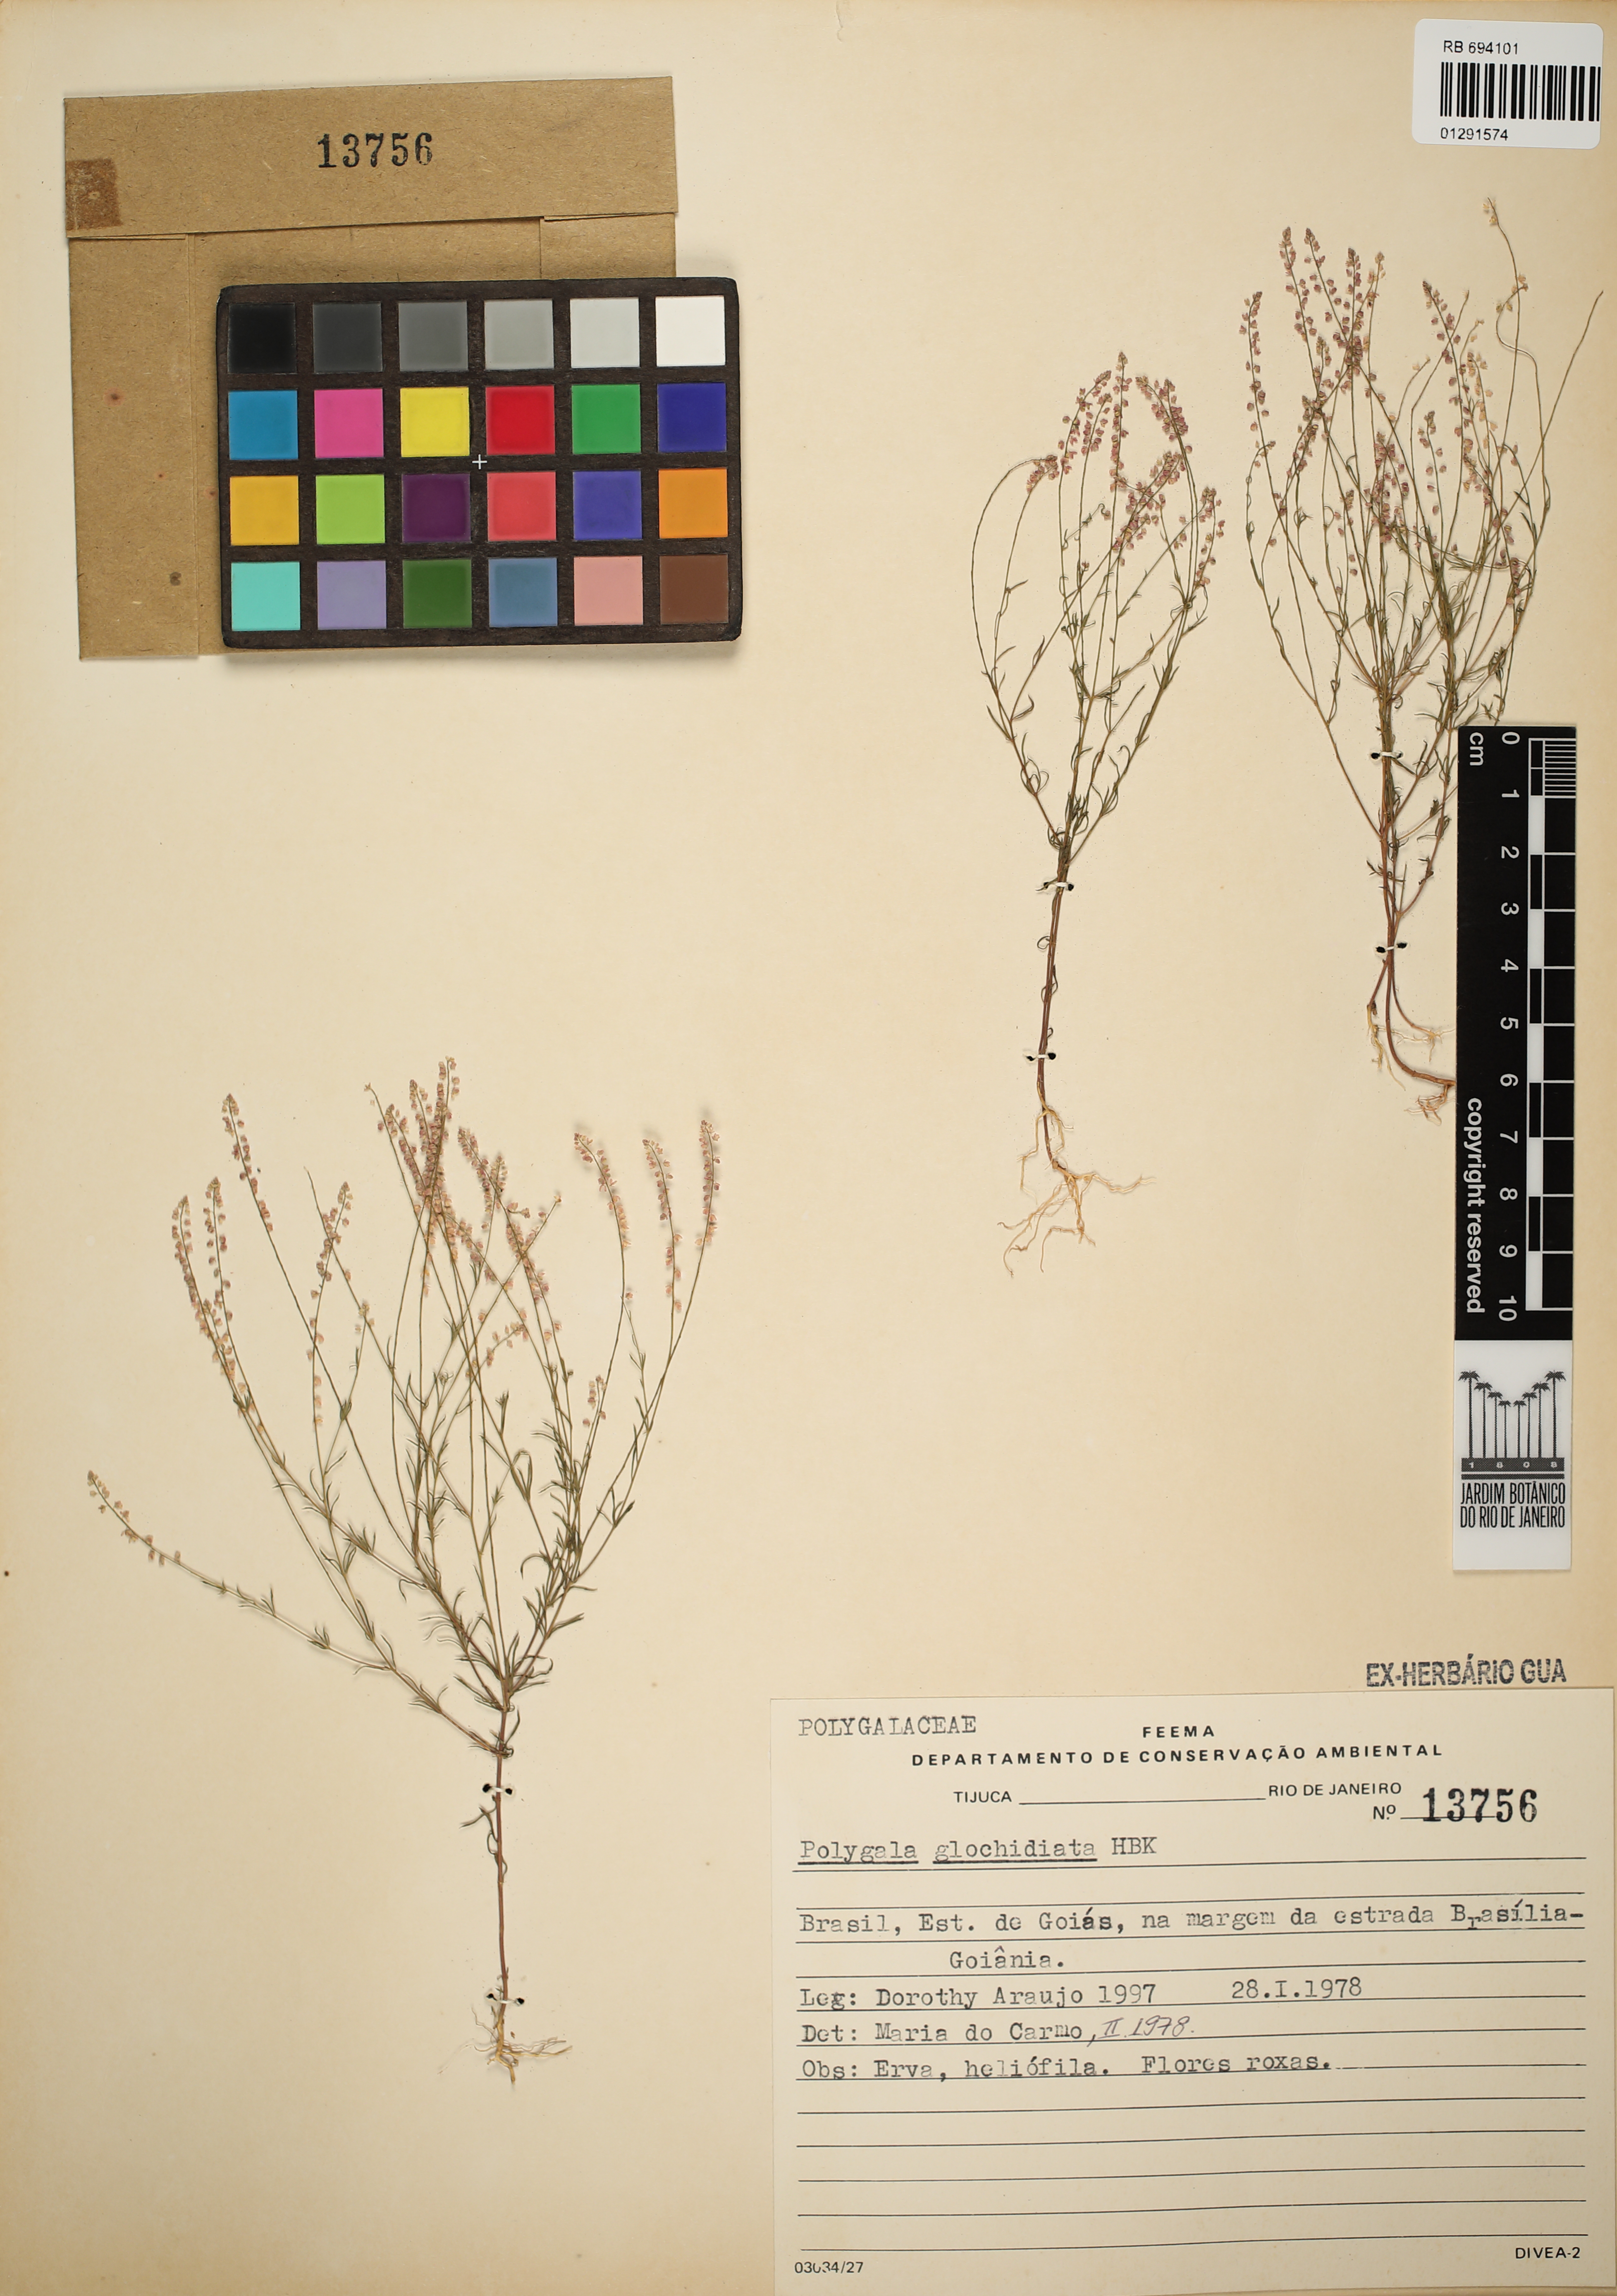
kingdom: Plantae
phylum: Tracheophyta
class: Magnoliopsida
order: Fabales
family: Polygalaceae
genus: Polygala
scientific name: Polygala glochidiata
